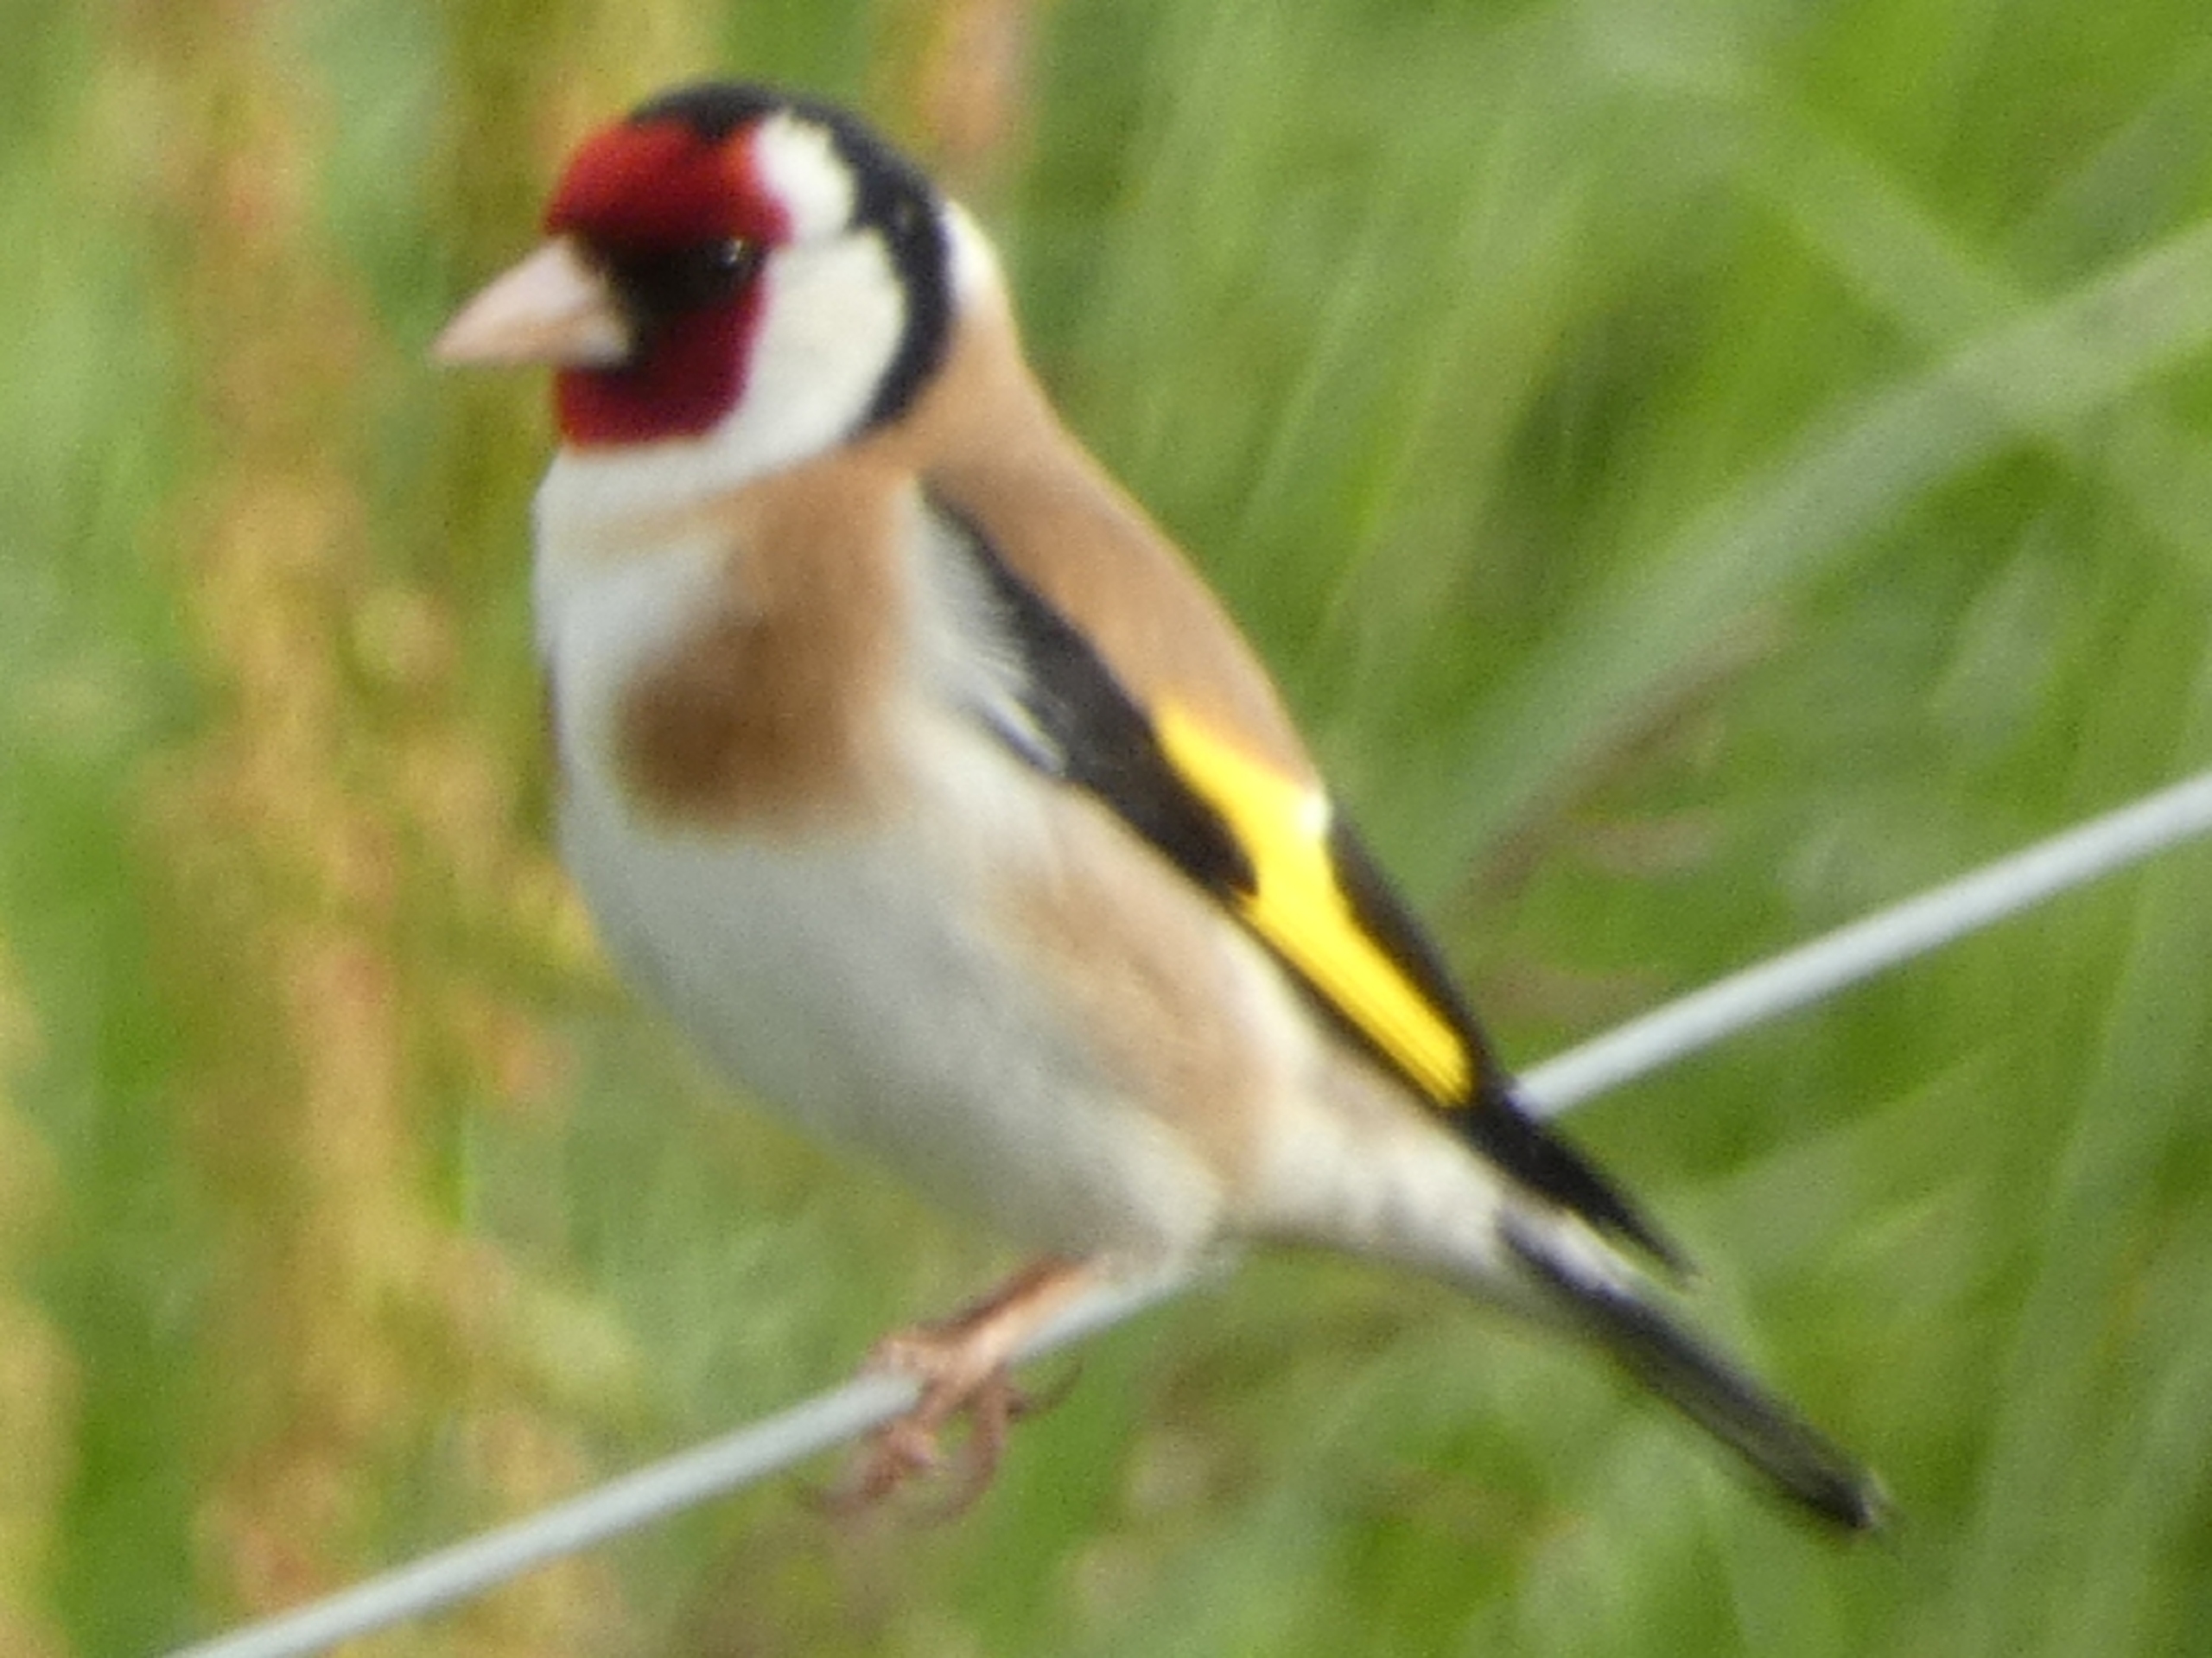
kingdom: Animalia
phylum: Chordata
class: Aves
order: Passeriformes
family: Fringillidae
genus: Carduelis
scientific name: Carduelis carduelis
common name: Stillits
